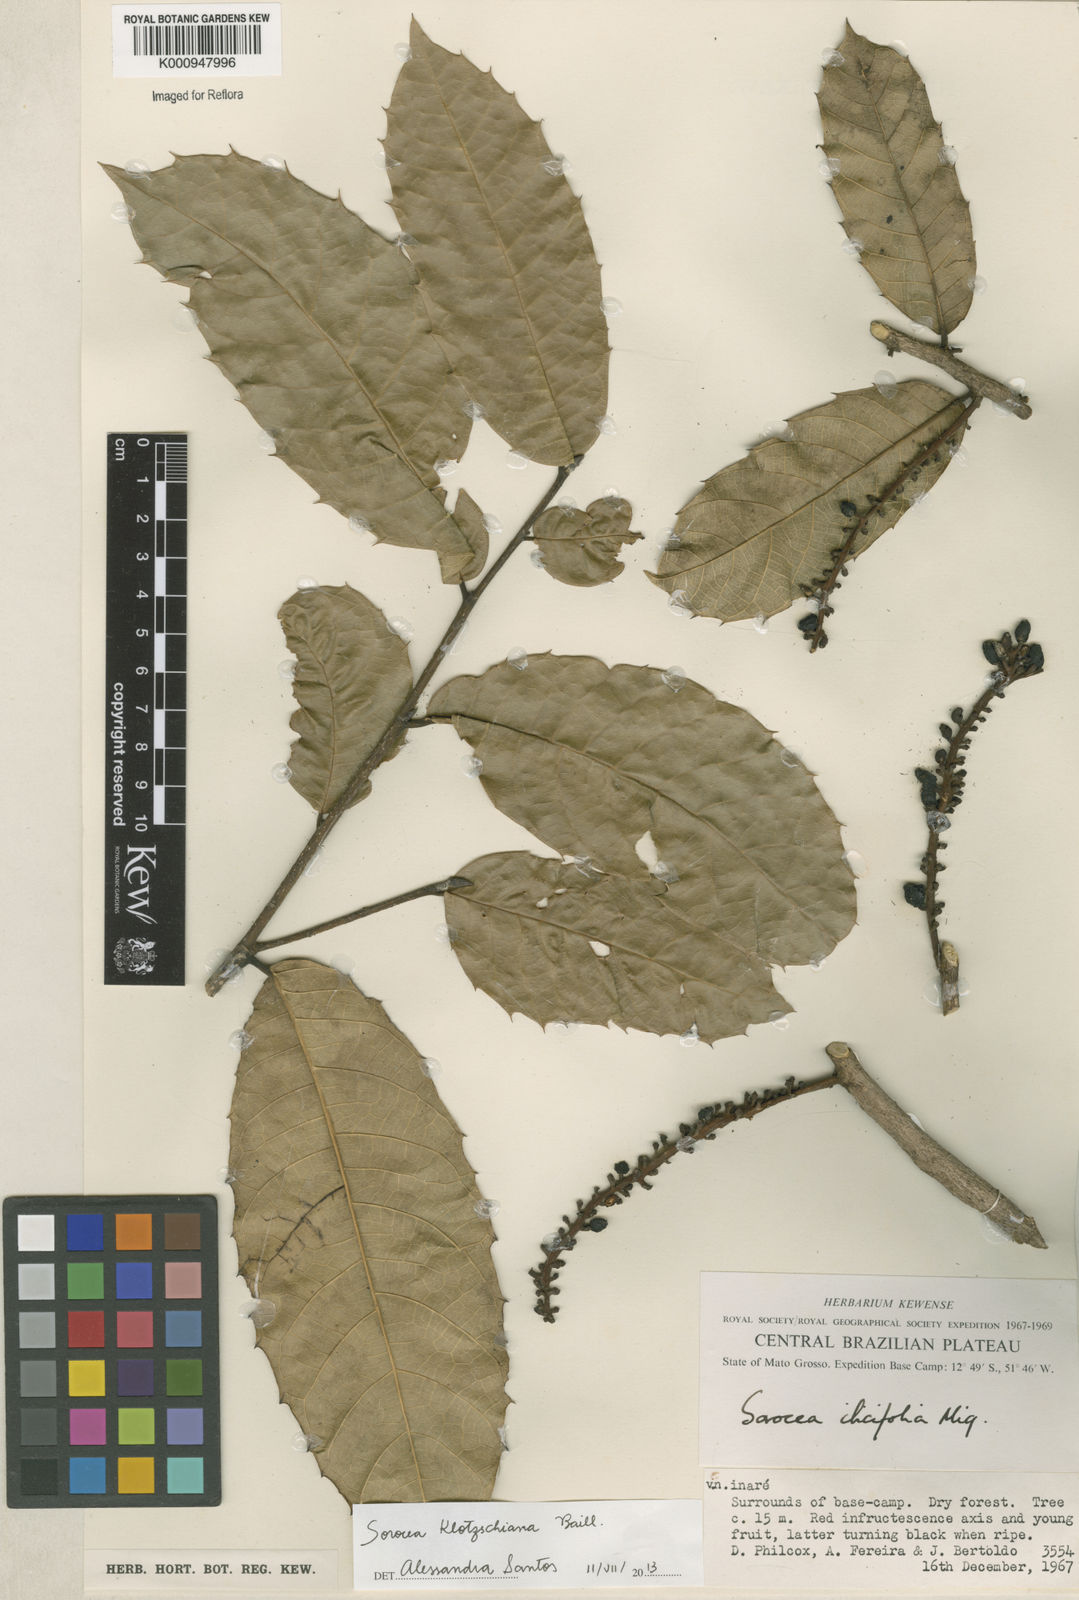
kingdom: Plantae
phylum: Tracheophyta
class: Magnoliopsida
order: Rosales
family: Moraceae
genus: Sorocea
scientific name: Sorocea guilleminiana
